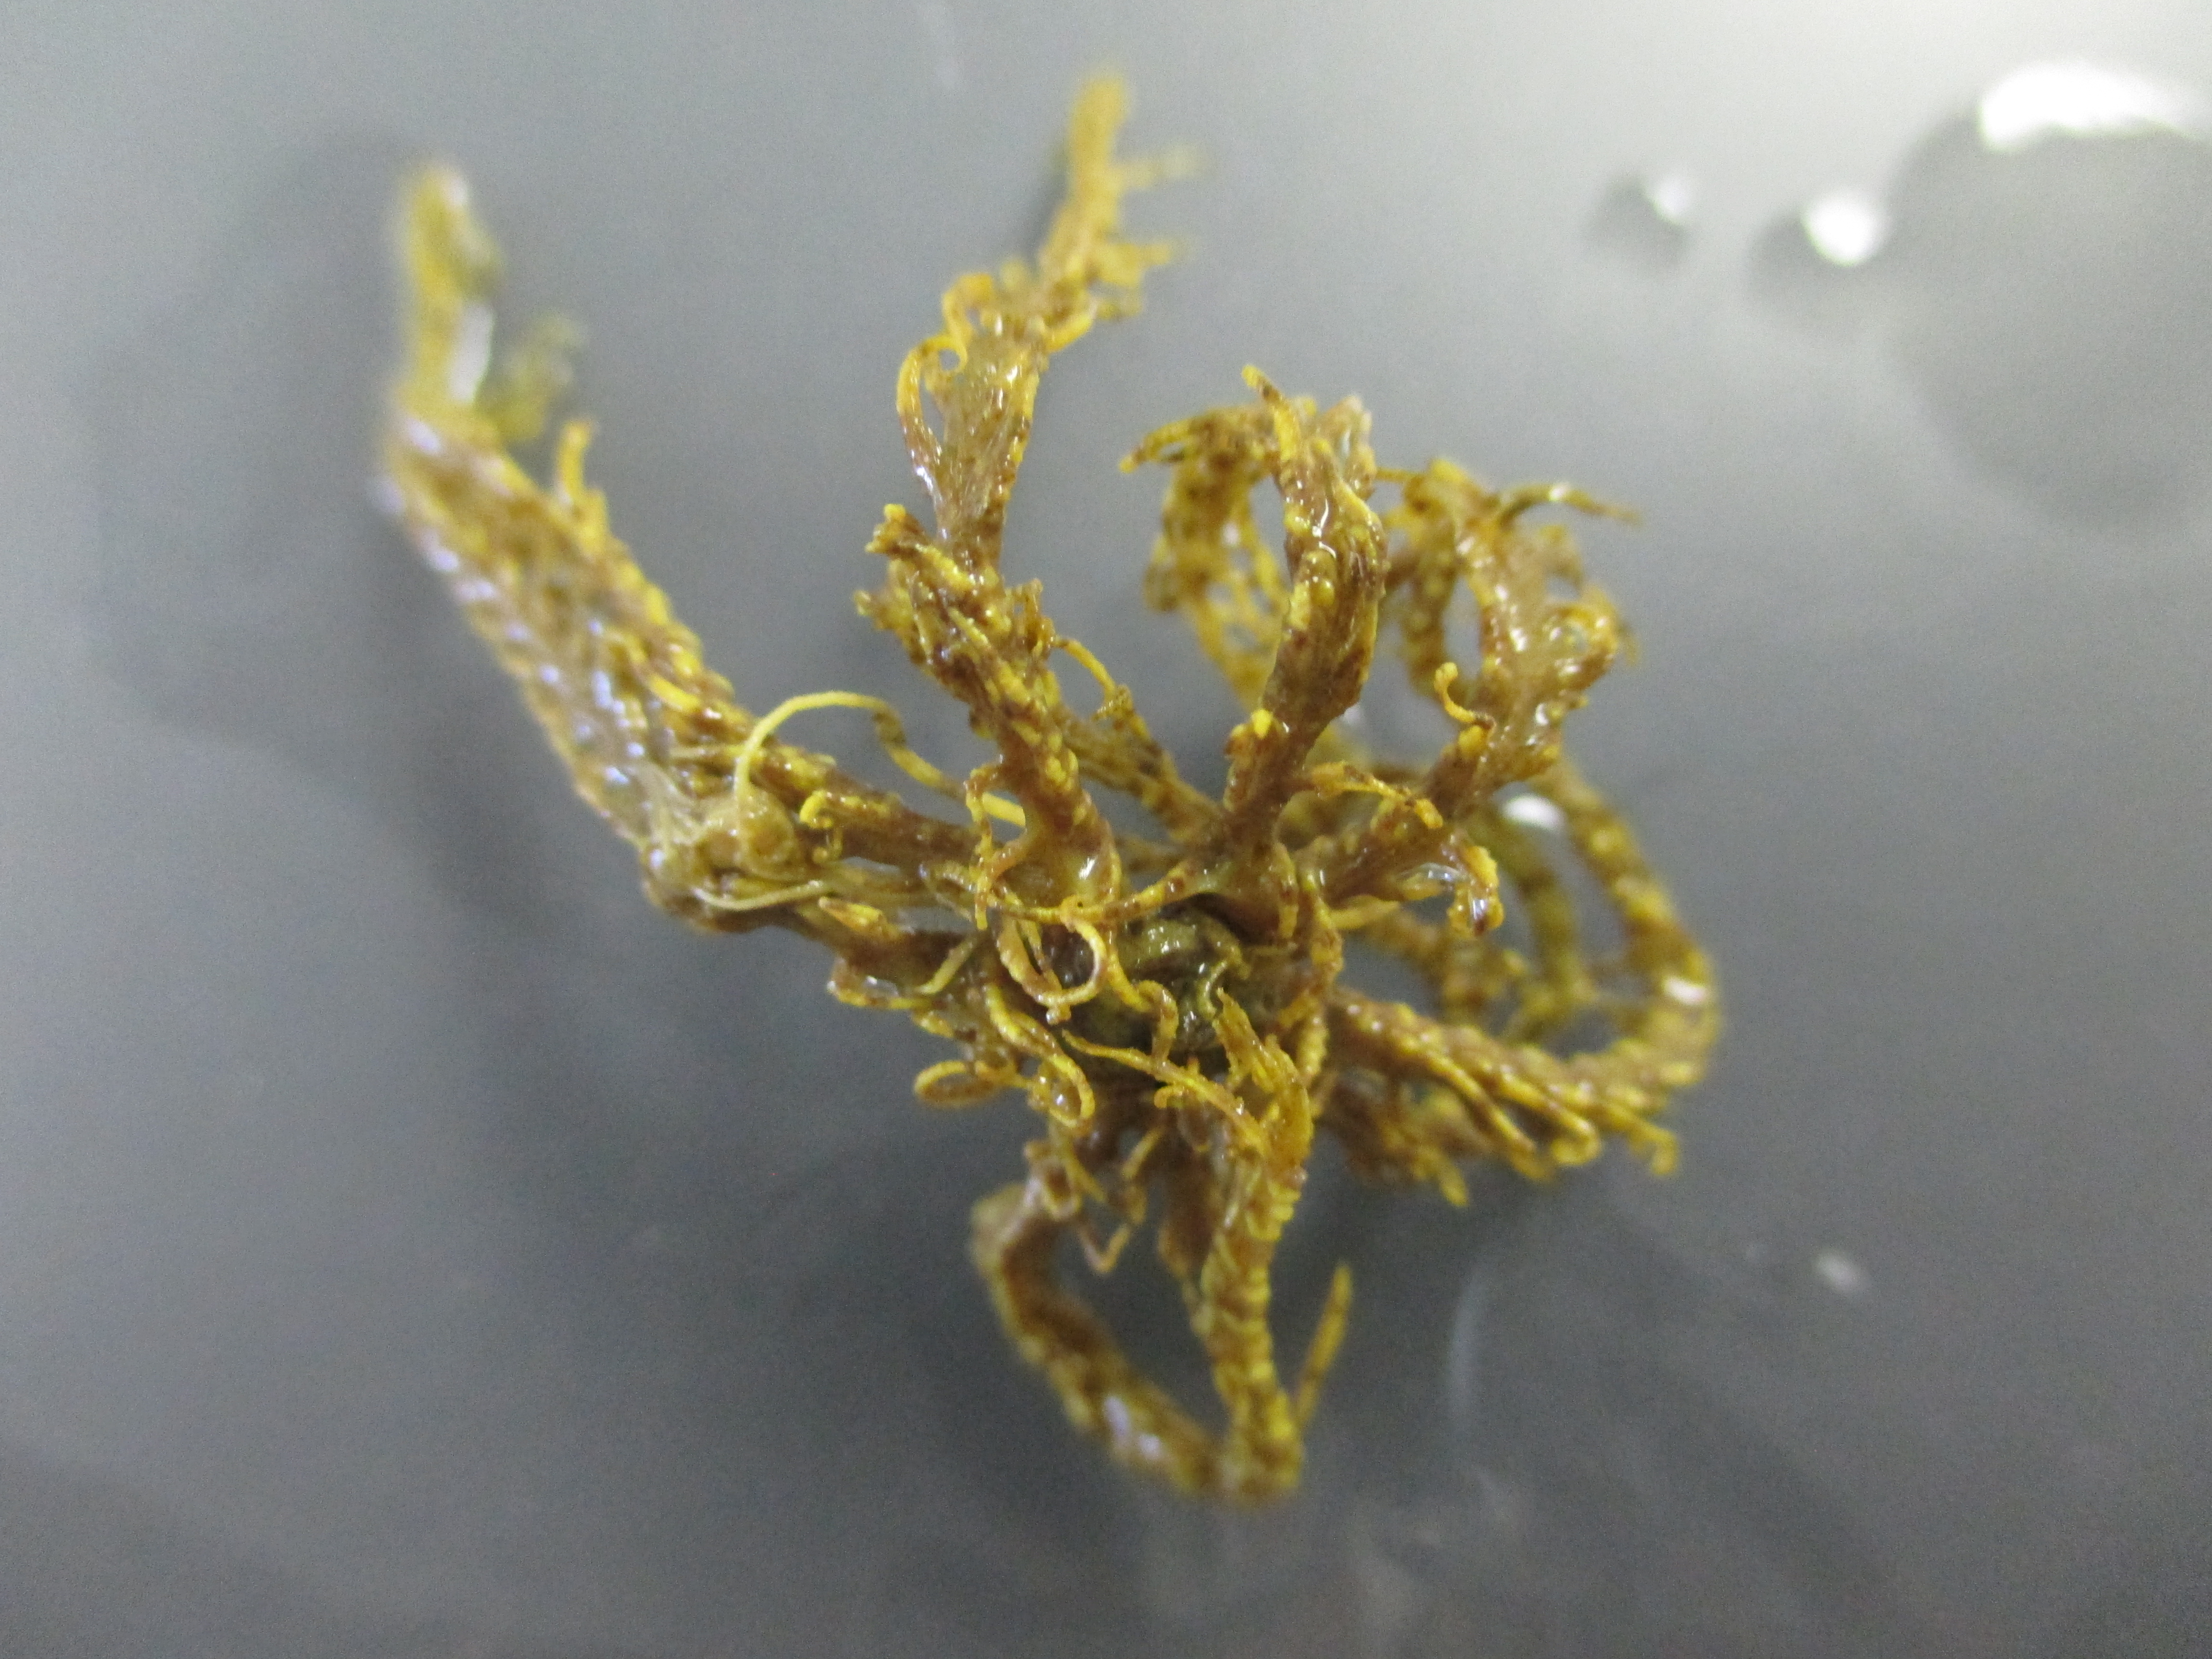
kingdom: Animalia
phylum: Echinodermata
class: Crinoidea
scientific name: Crinoidea
